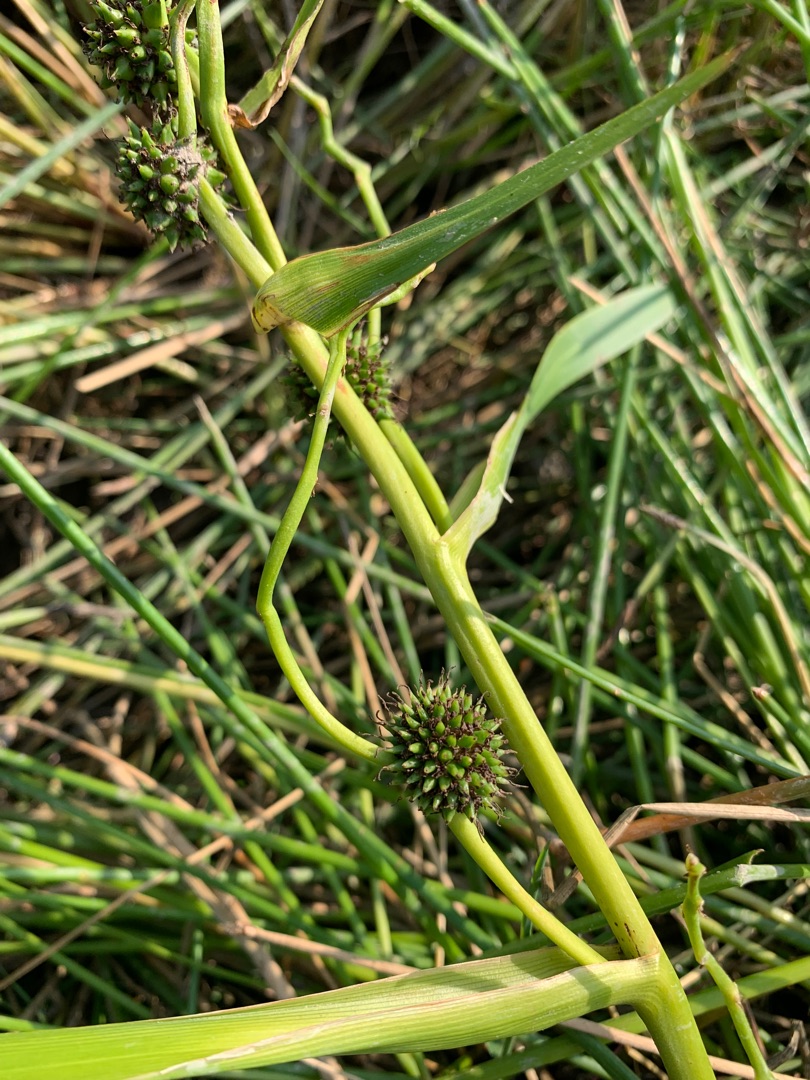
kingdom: Plantae
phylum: Tracheophyta
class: Liliopsida
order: Poales
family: Typhaceae
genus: Sparganium
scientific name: Sparganium erectum
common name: Grenet pindsvineknop
